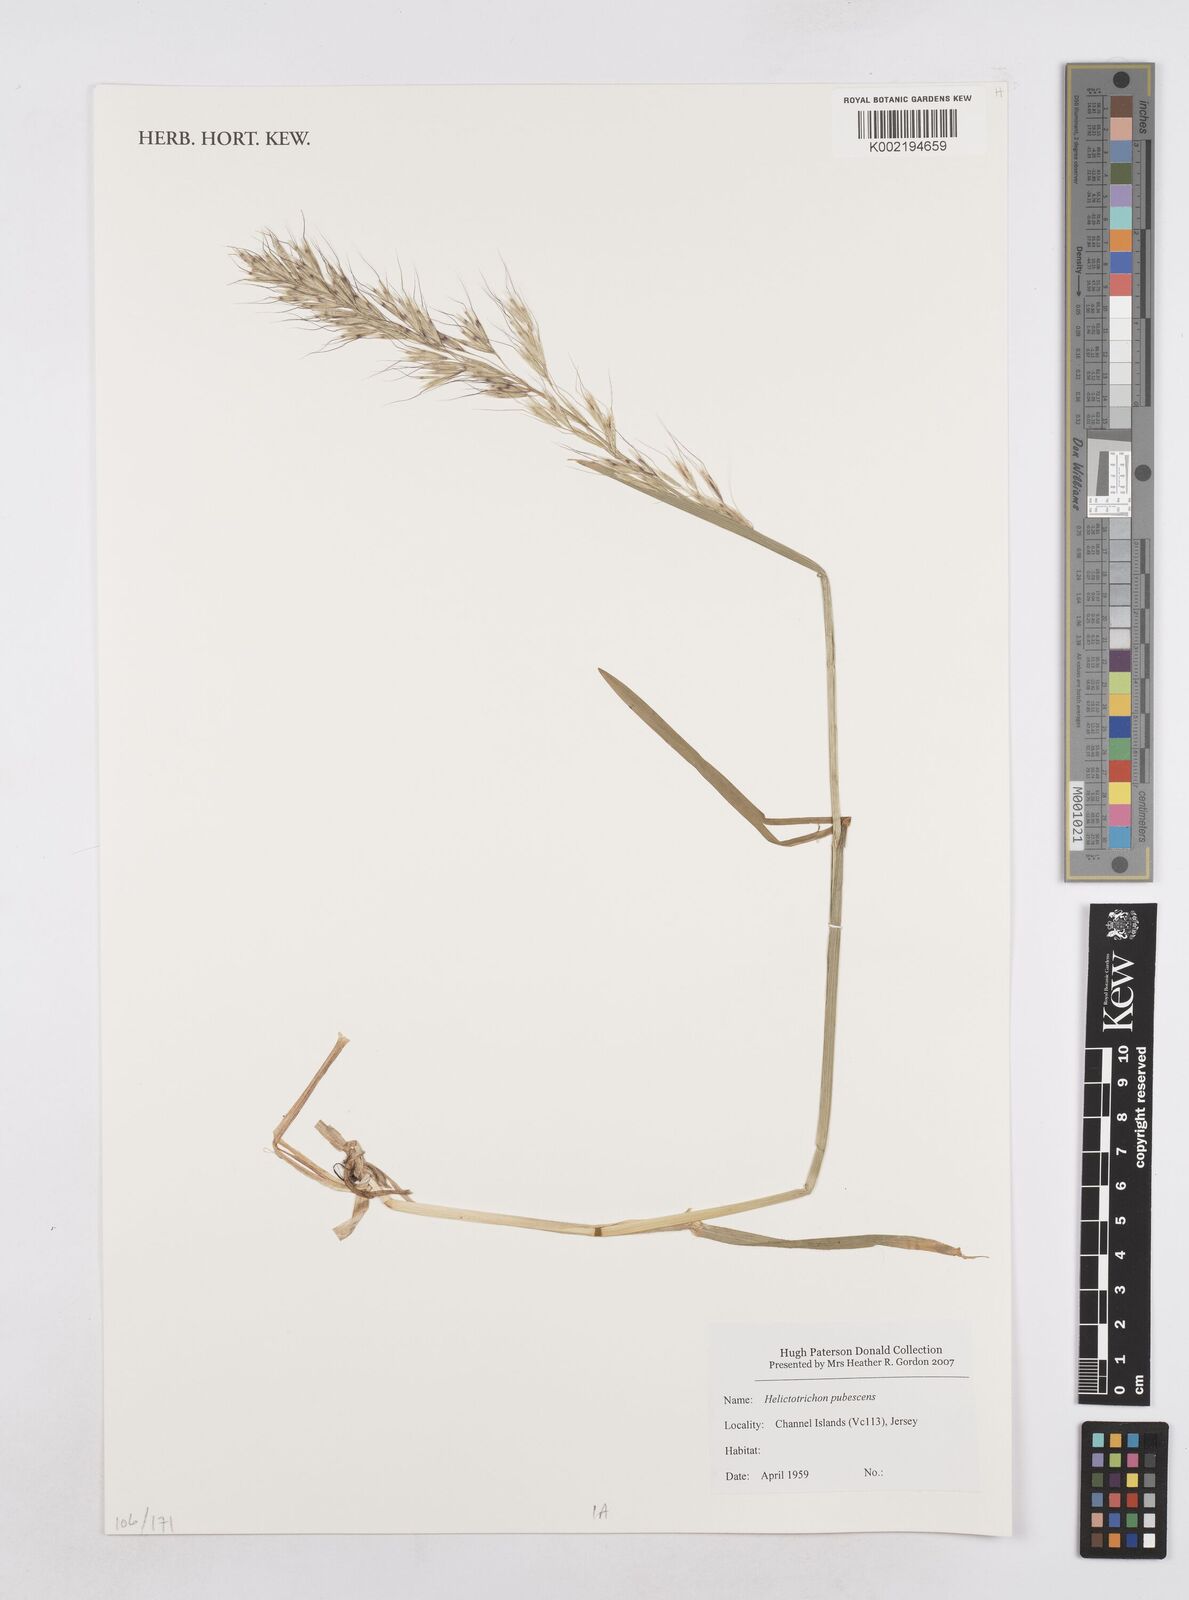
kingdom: Plantae
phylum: Tracheophyta
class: Liliopsida
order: Poales
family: Poaceae
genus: Avenula
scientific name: Avenula pubescens
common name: Downy alpine oatgrass
